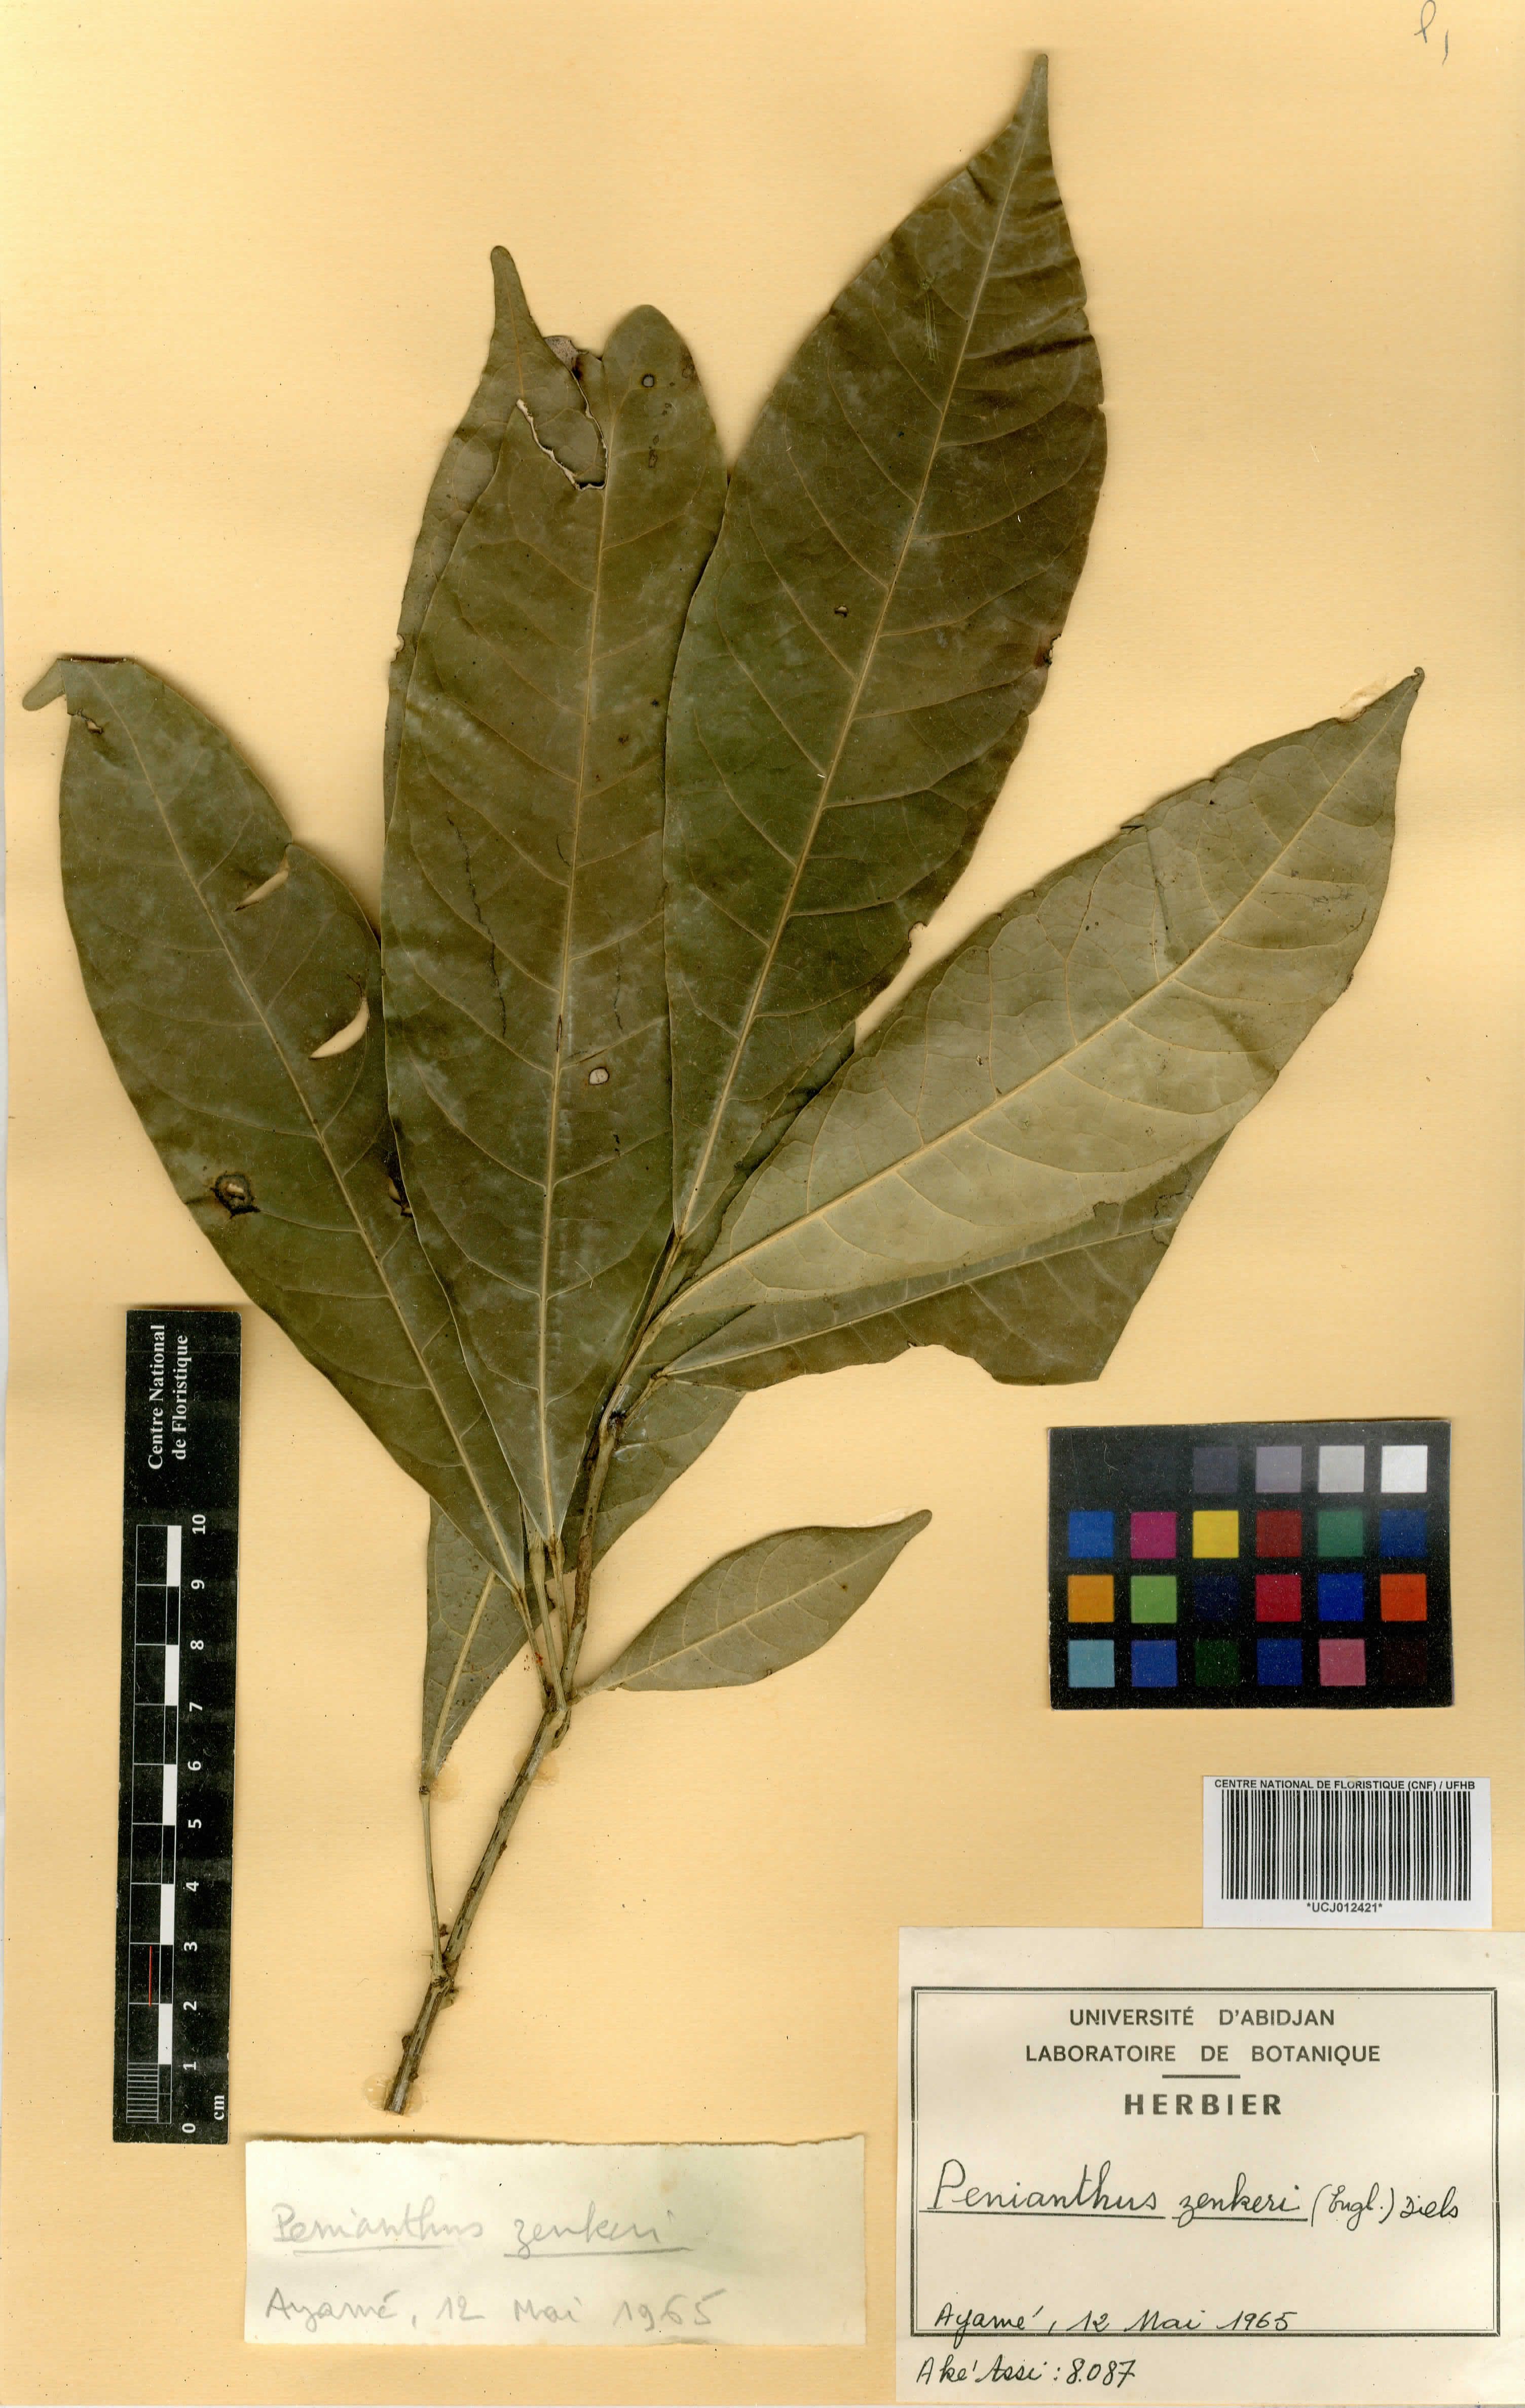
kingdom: Plantae
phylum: Tracheophyta
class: Magnoliopsida
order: Ranunculales
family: Menispermaceae
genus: Penianthus
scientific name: Penianthus zenkeri
